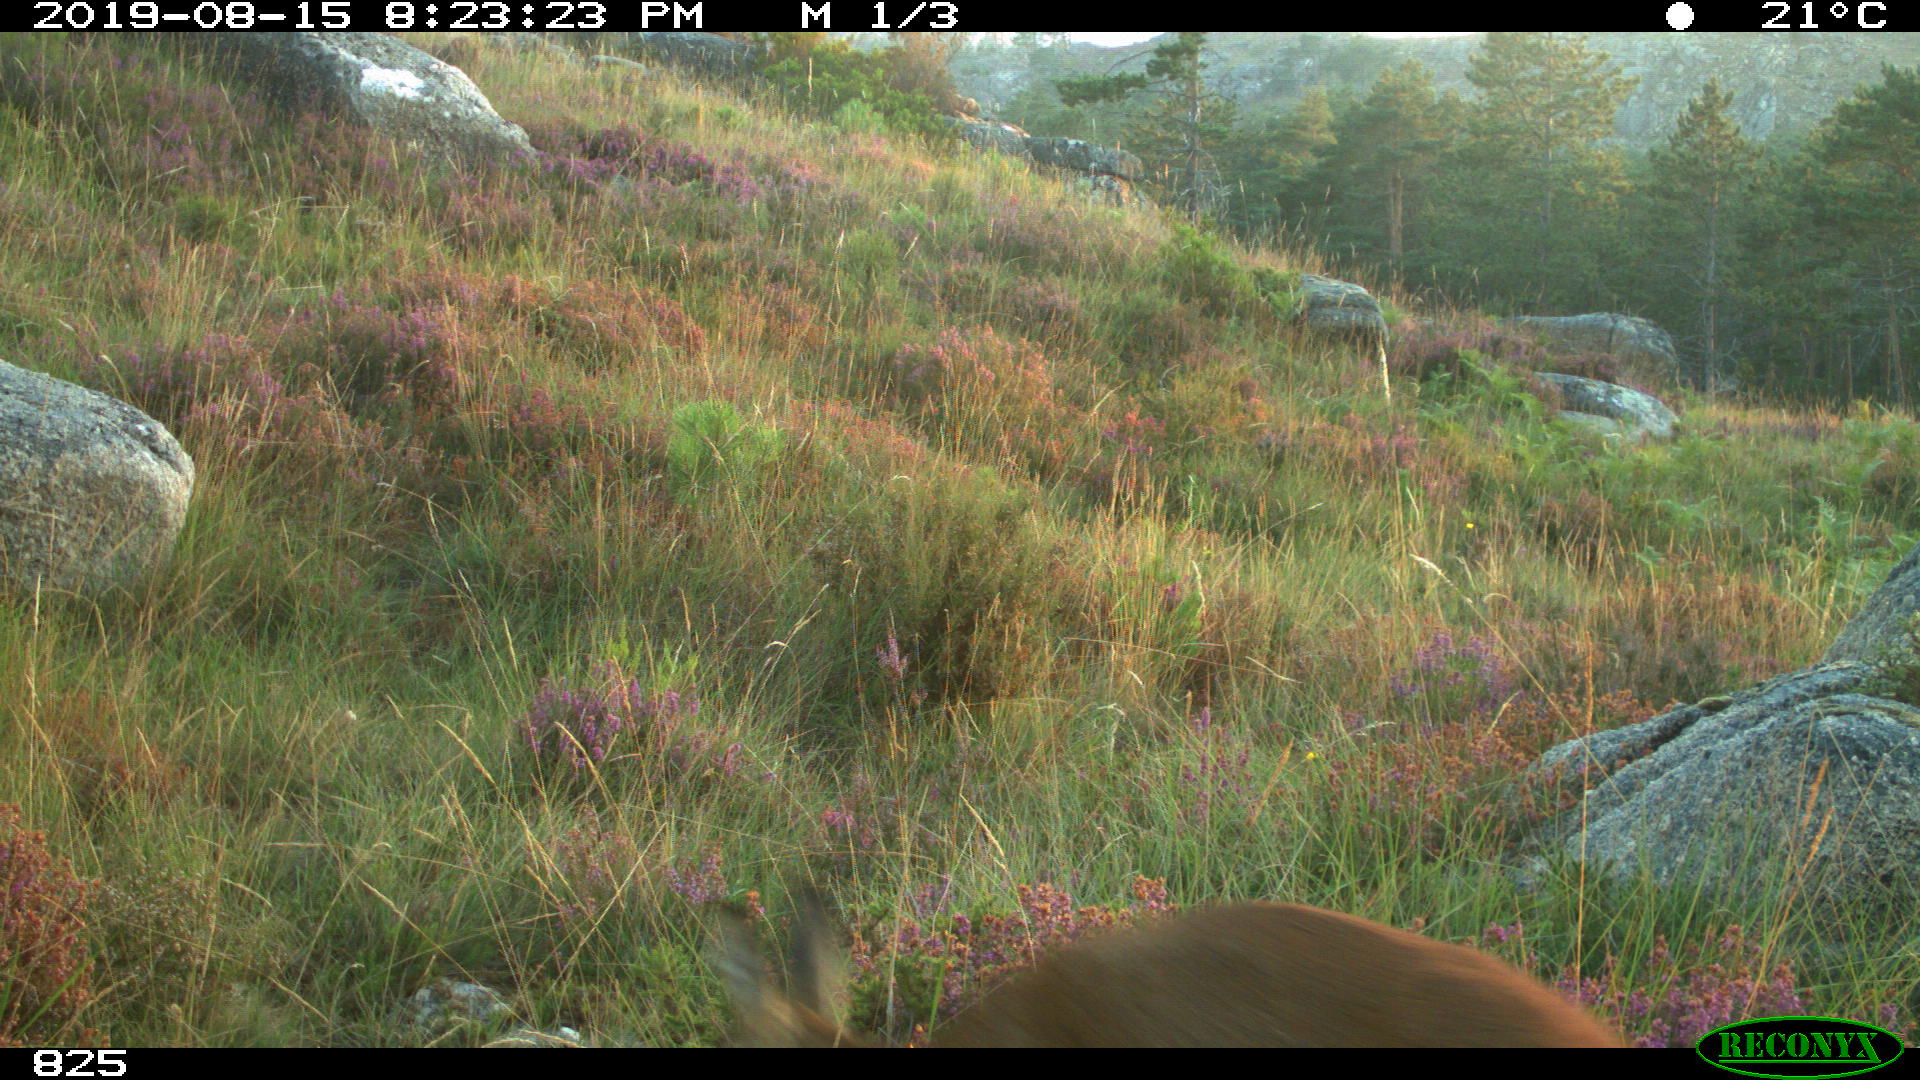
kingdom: Animalia
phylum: Chordata
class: Mammalia
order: Artiodactyla
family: Cervidae
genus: Capreolus
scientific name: Capreolus capreolus
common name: Western roe deer
